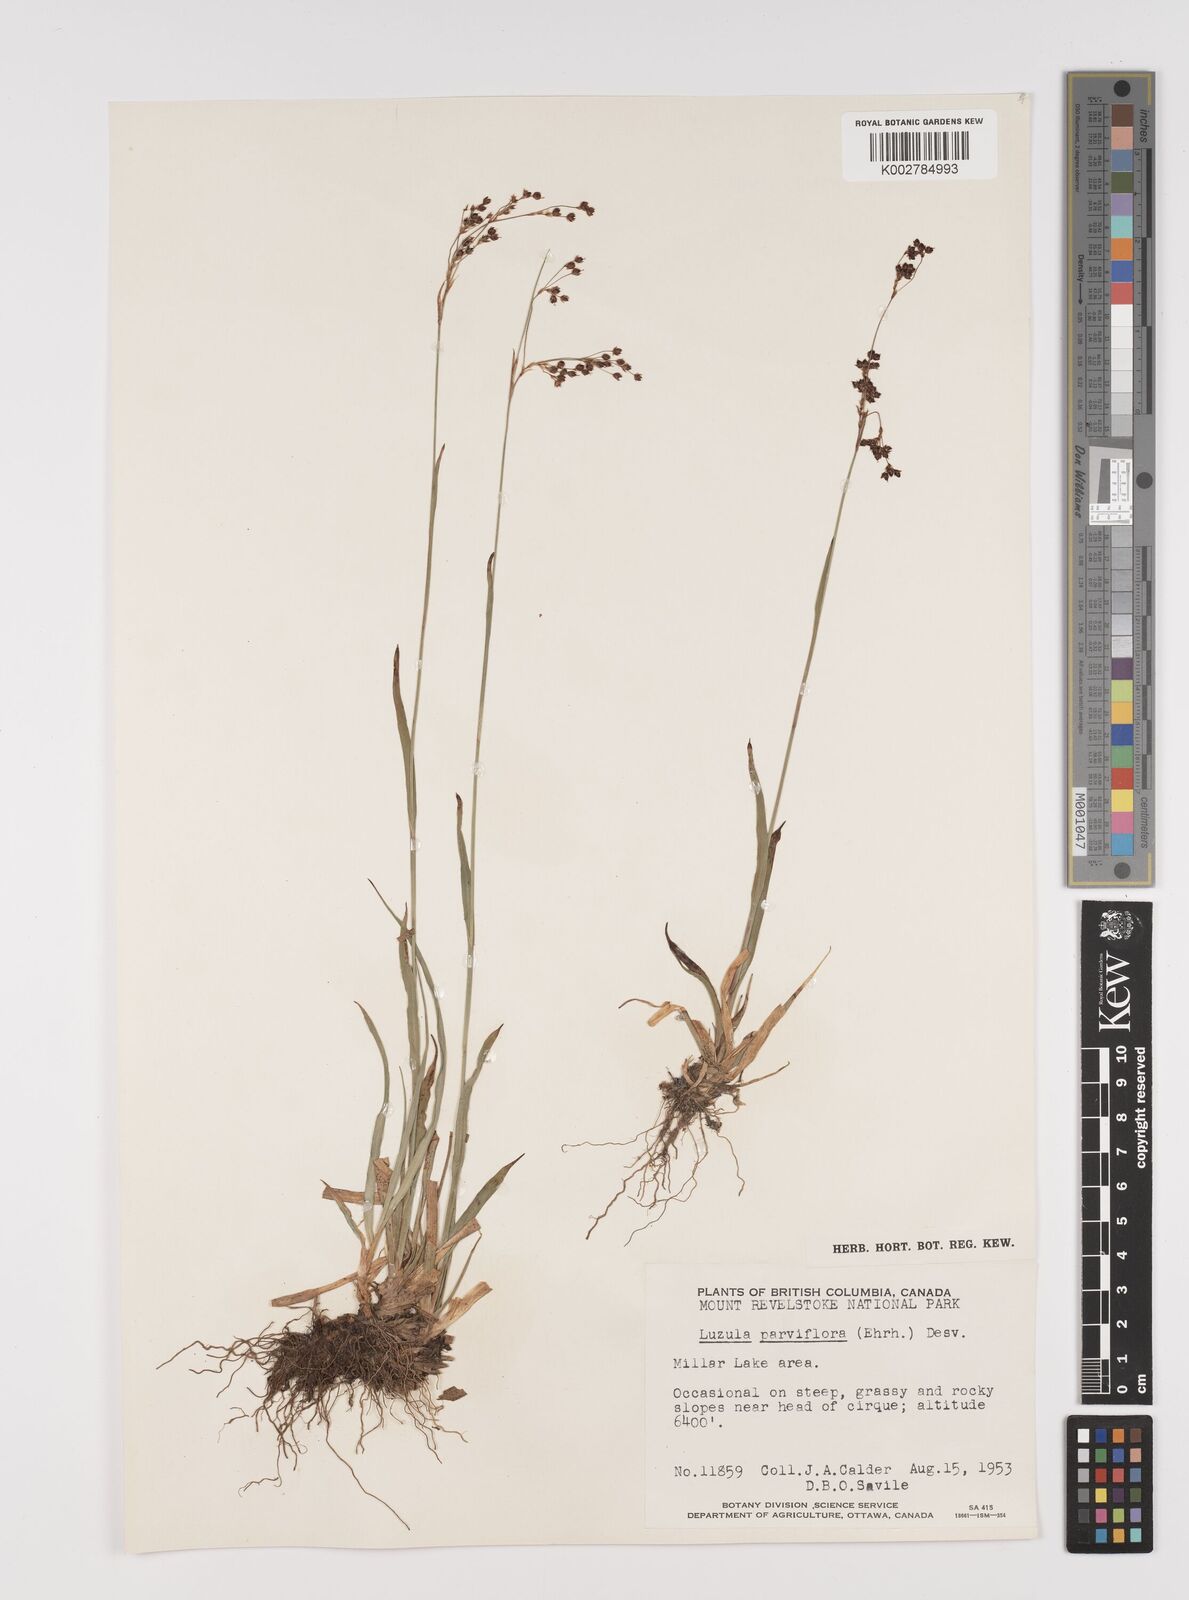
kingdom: Plantae
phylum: Tracheophyta
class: Liliopsida
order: Poales
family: Juncaceae
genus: Luzula
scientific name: Luzula parviflora
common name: Millet woodrush
